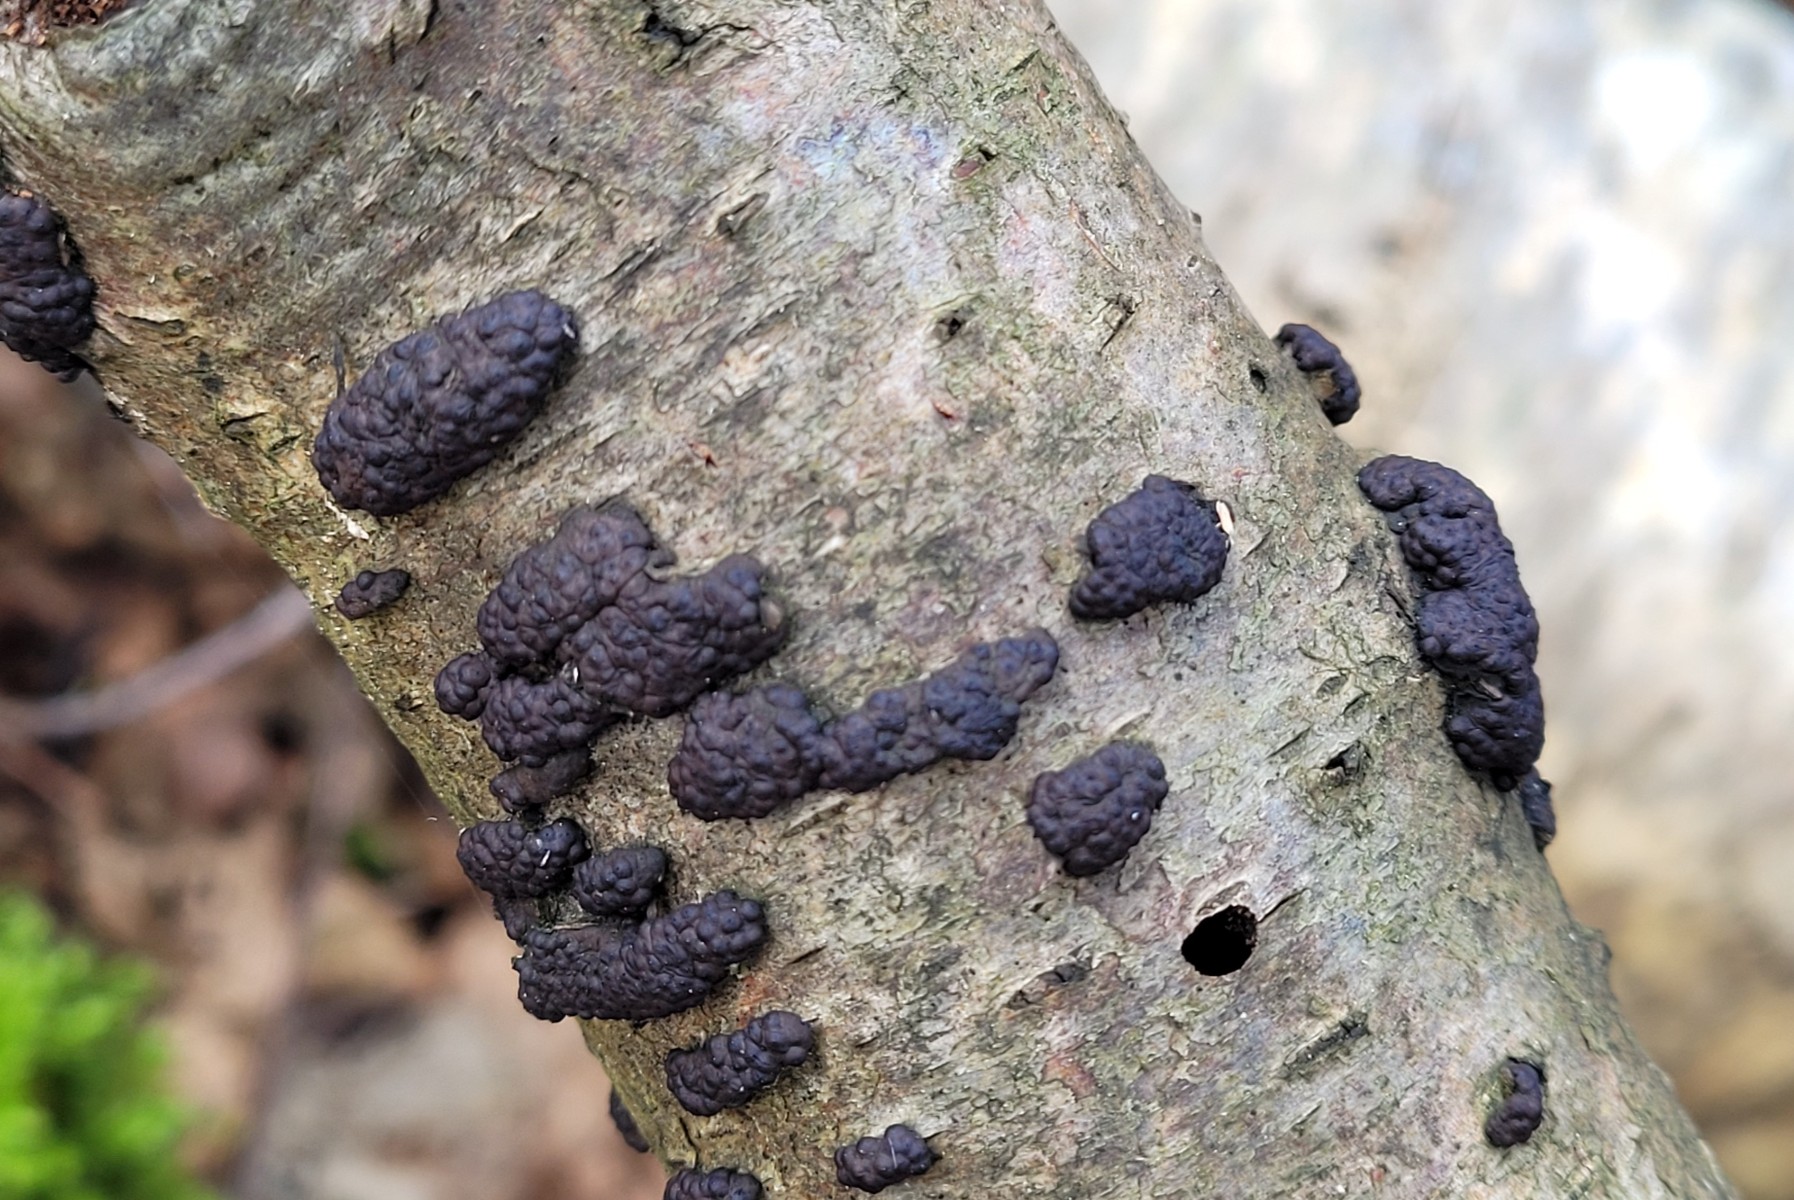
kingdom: Fungi
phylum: Ascomycota
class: Sordariomycetes
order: Xylariales
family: Hypoxylaceae
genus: Jackrogersella
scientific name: Jackrogersella multiformis
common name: foranderlig kulbær
